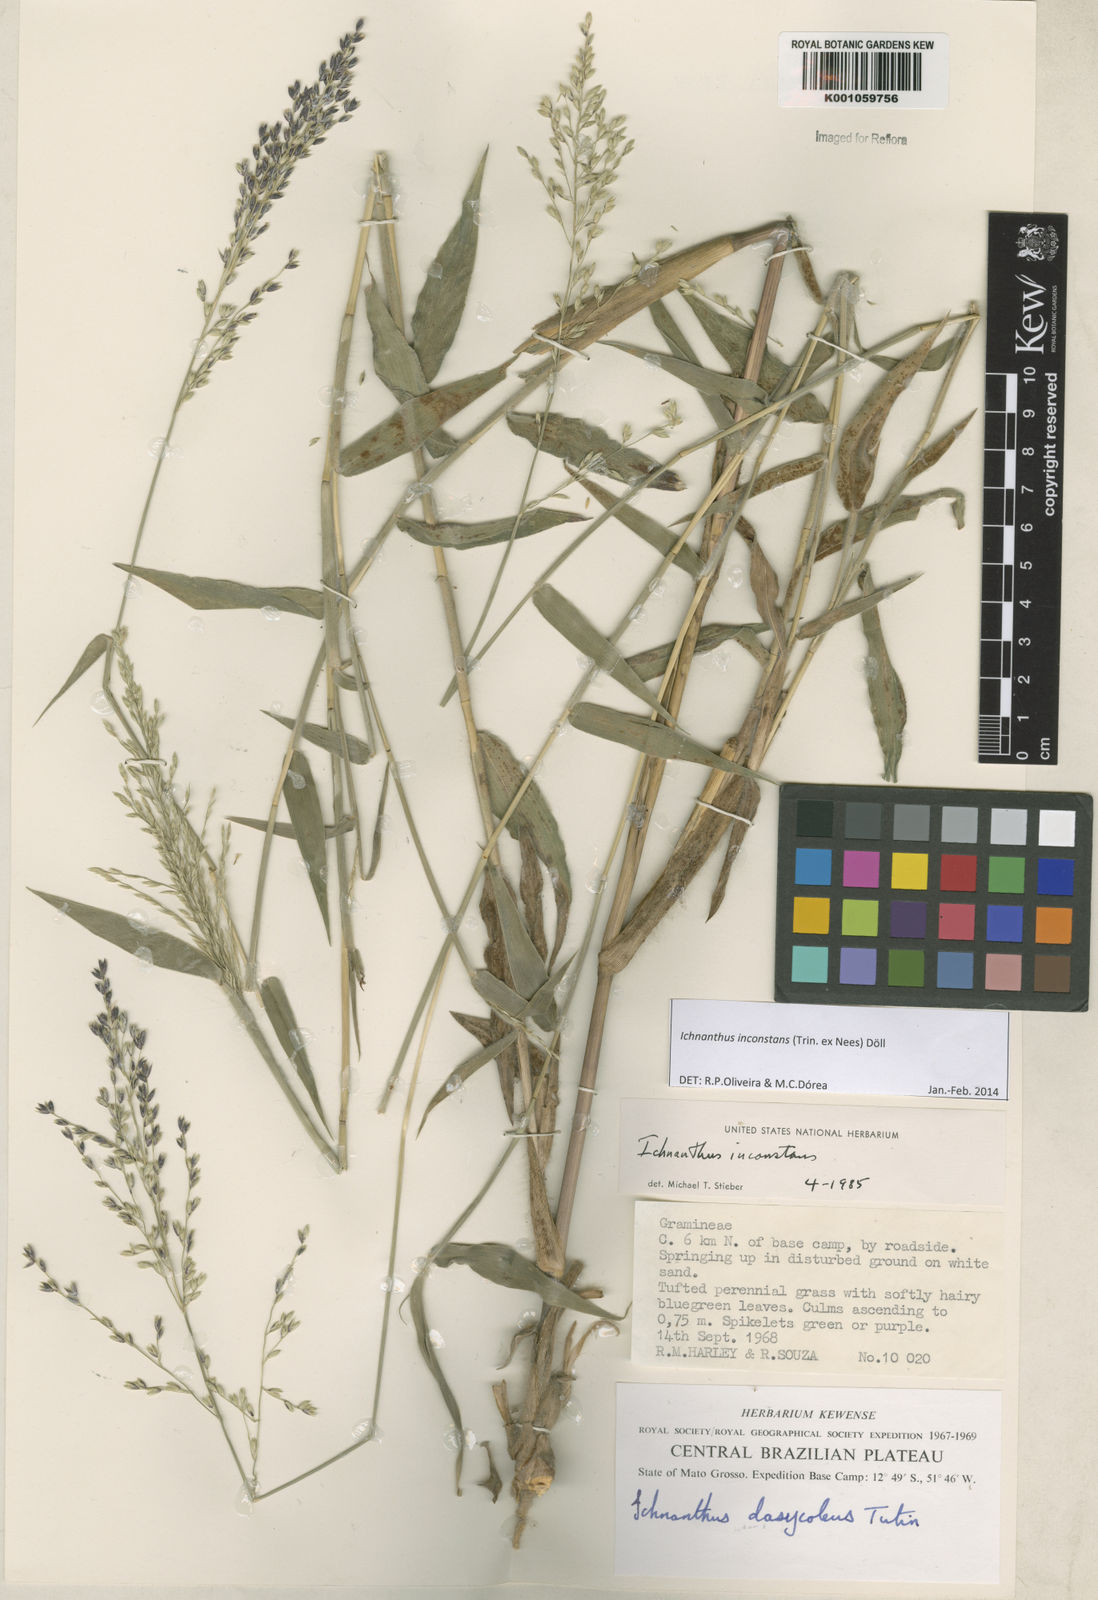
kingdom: Plantae
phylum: Tracheophyta
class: Liliopsida
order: Poales
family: Poaceae
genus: Ichnanthus
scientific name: Ichnanthus
